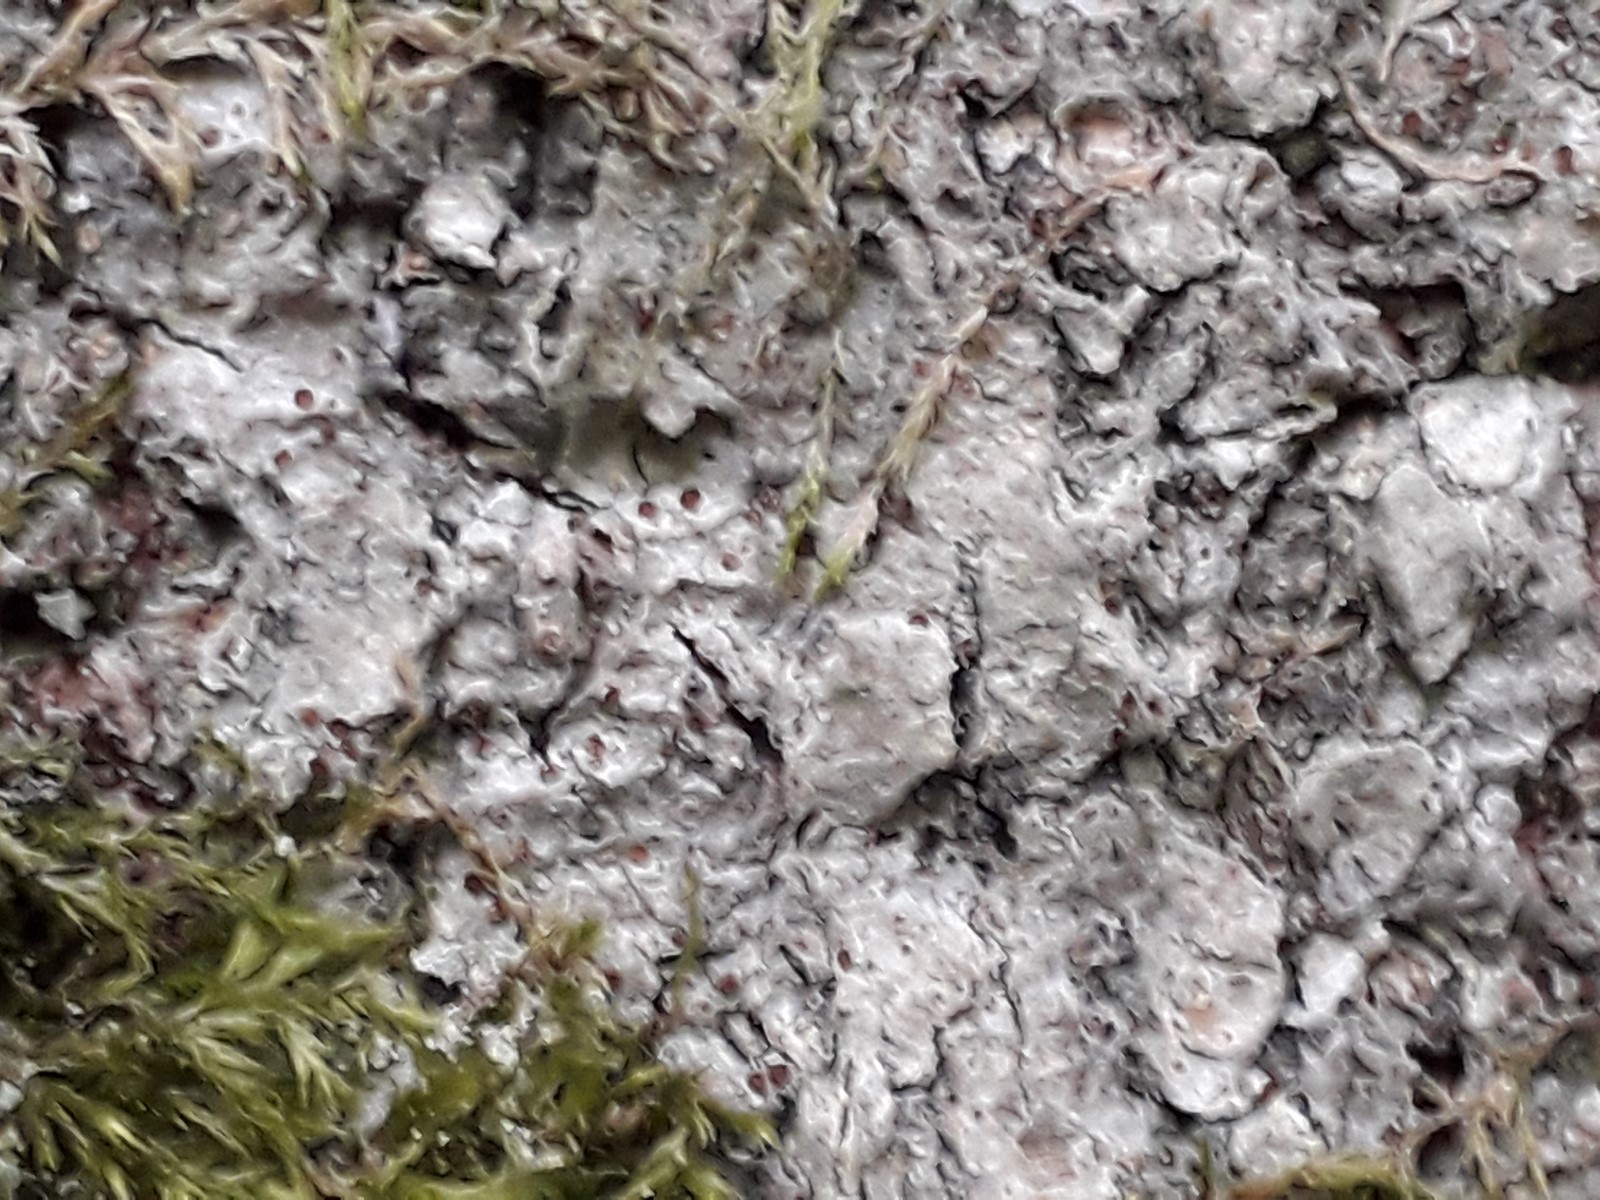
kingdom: Fungi
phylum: Ascomycota
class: Lecanoromycetes
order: Gyalectales
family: Gyalectaceae
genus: Pachyphiale
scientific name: Pachyphiale carneola
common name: rødbrun gammelskovslav
